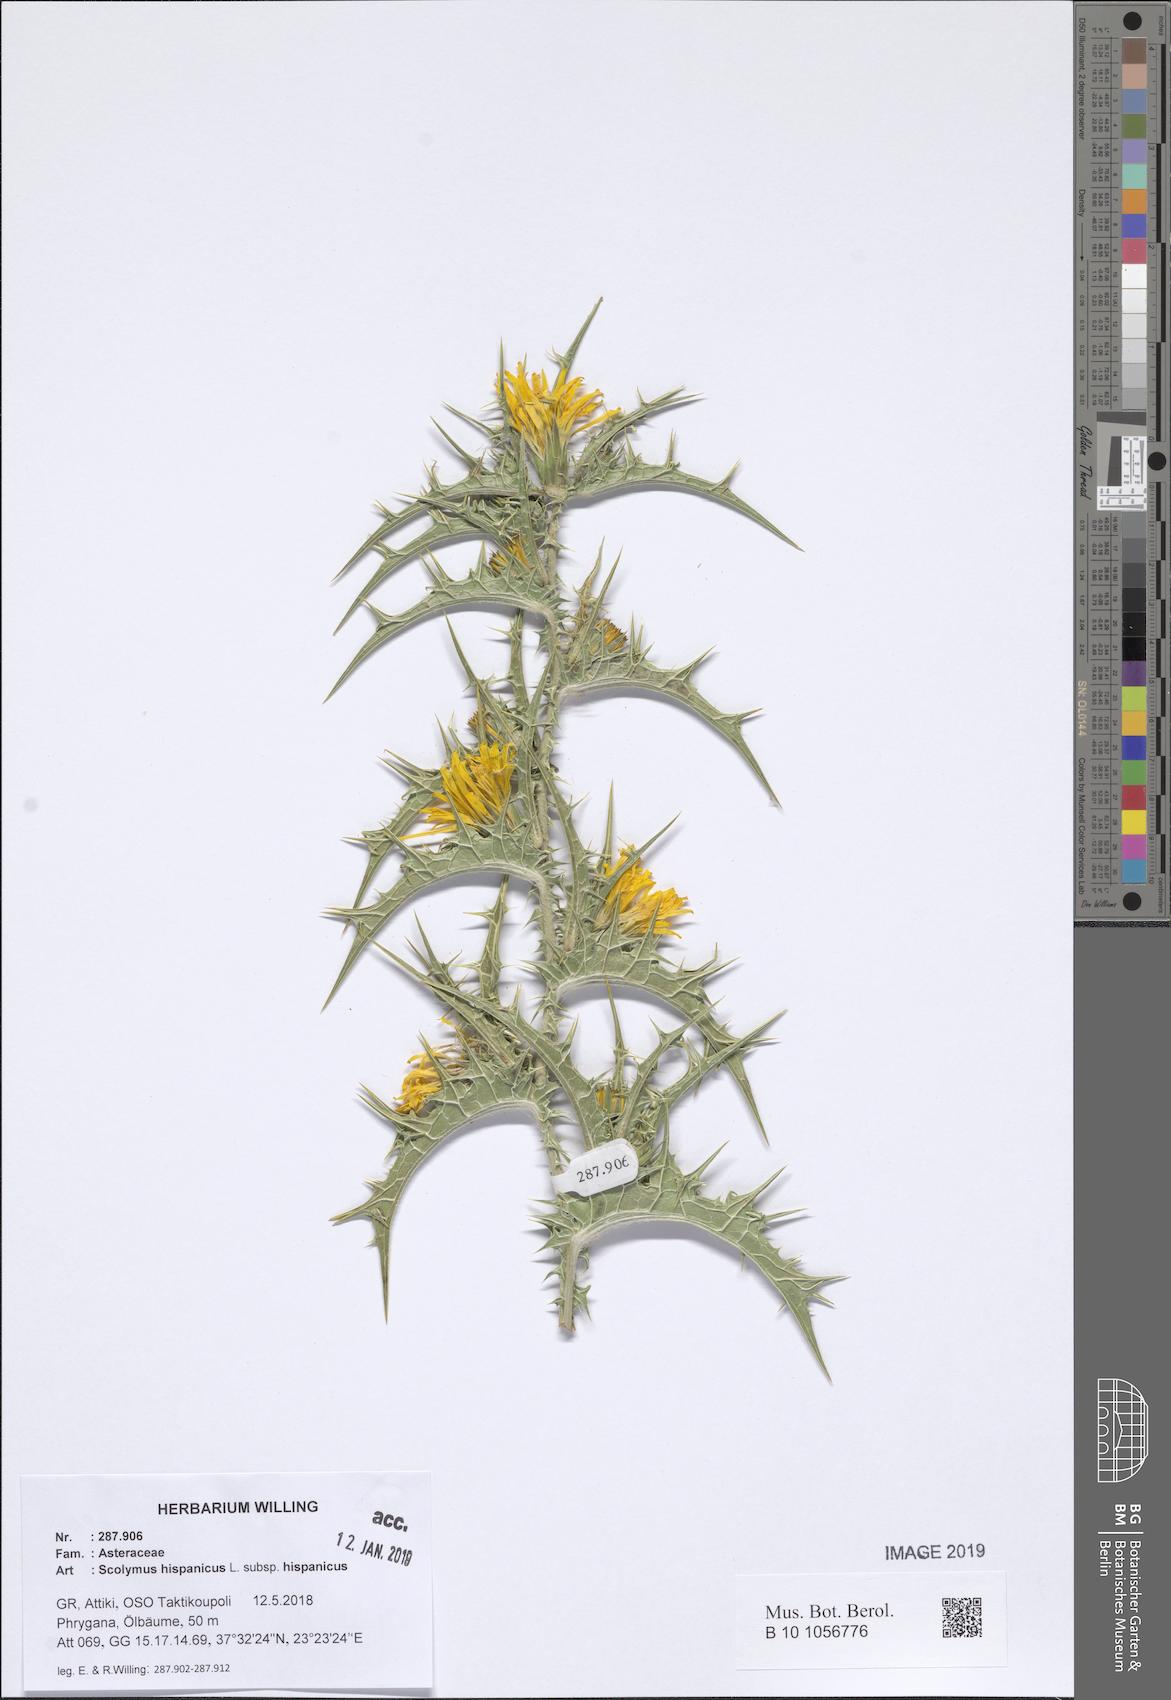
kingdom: Plantae
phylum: Tracheophyta
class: Magnoliopsida
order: Asterales
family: Asteraceae
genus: Scolymus
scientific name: Scolymus hispanicus
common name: Golden thistle
